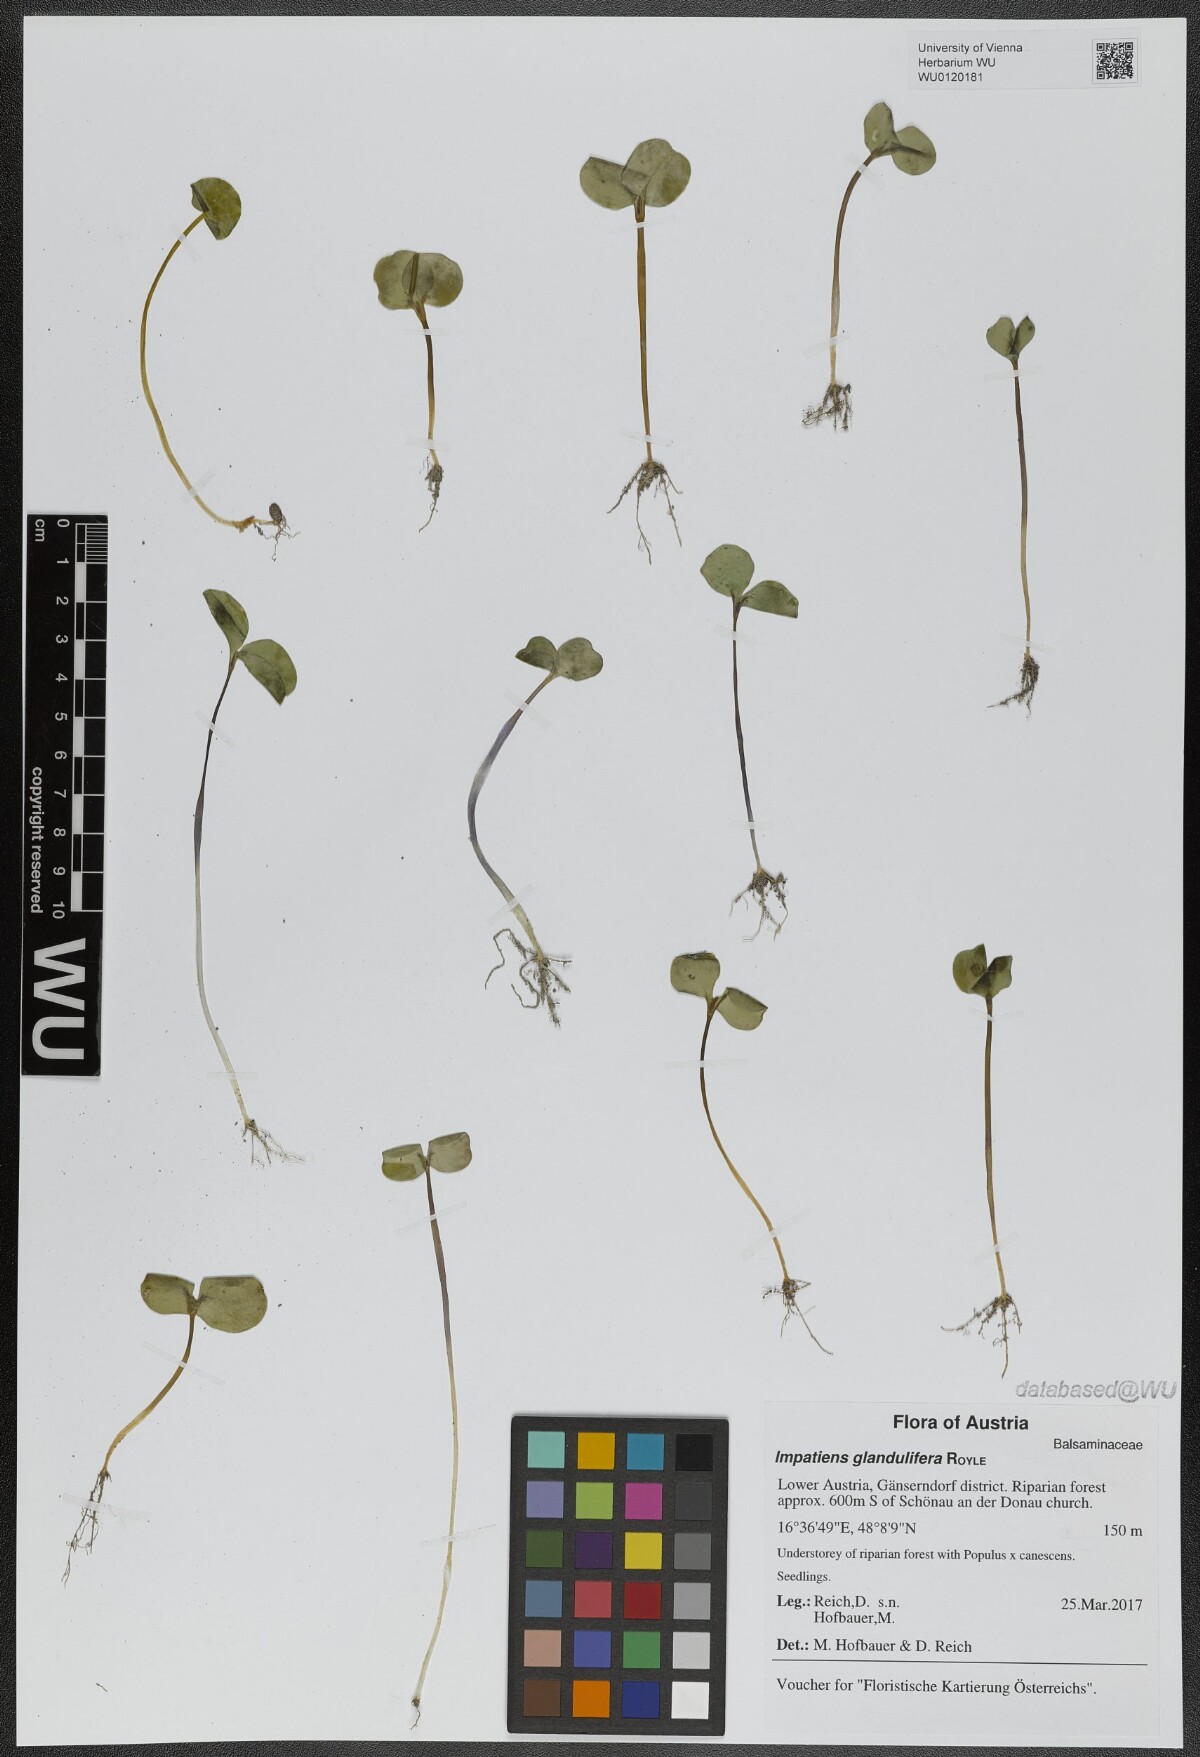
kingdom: Plantae
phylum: Tracheophyta
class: Magnoliopsida
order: Ericales
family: Balsaminaceae
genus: Impatiens
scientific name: Impatiens glandulifera
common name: Himalayan balsam
